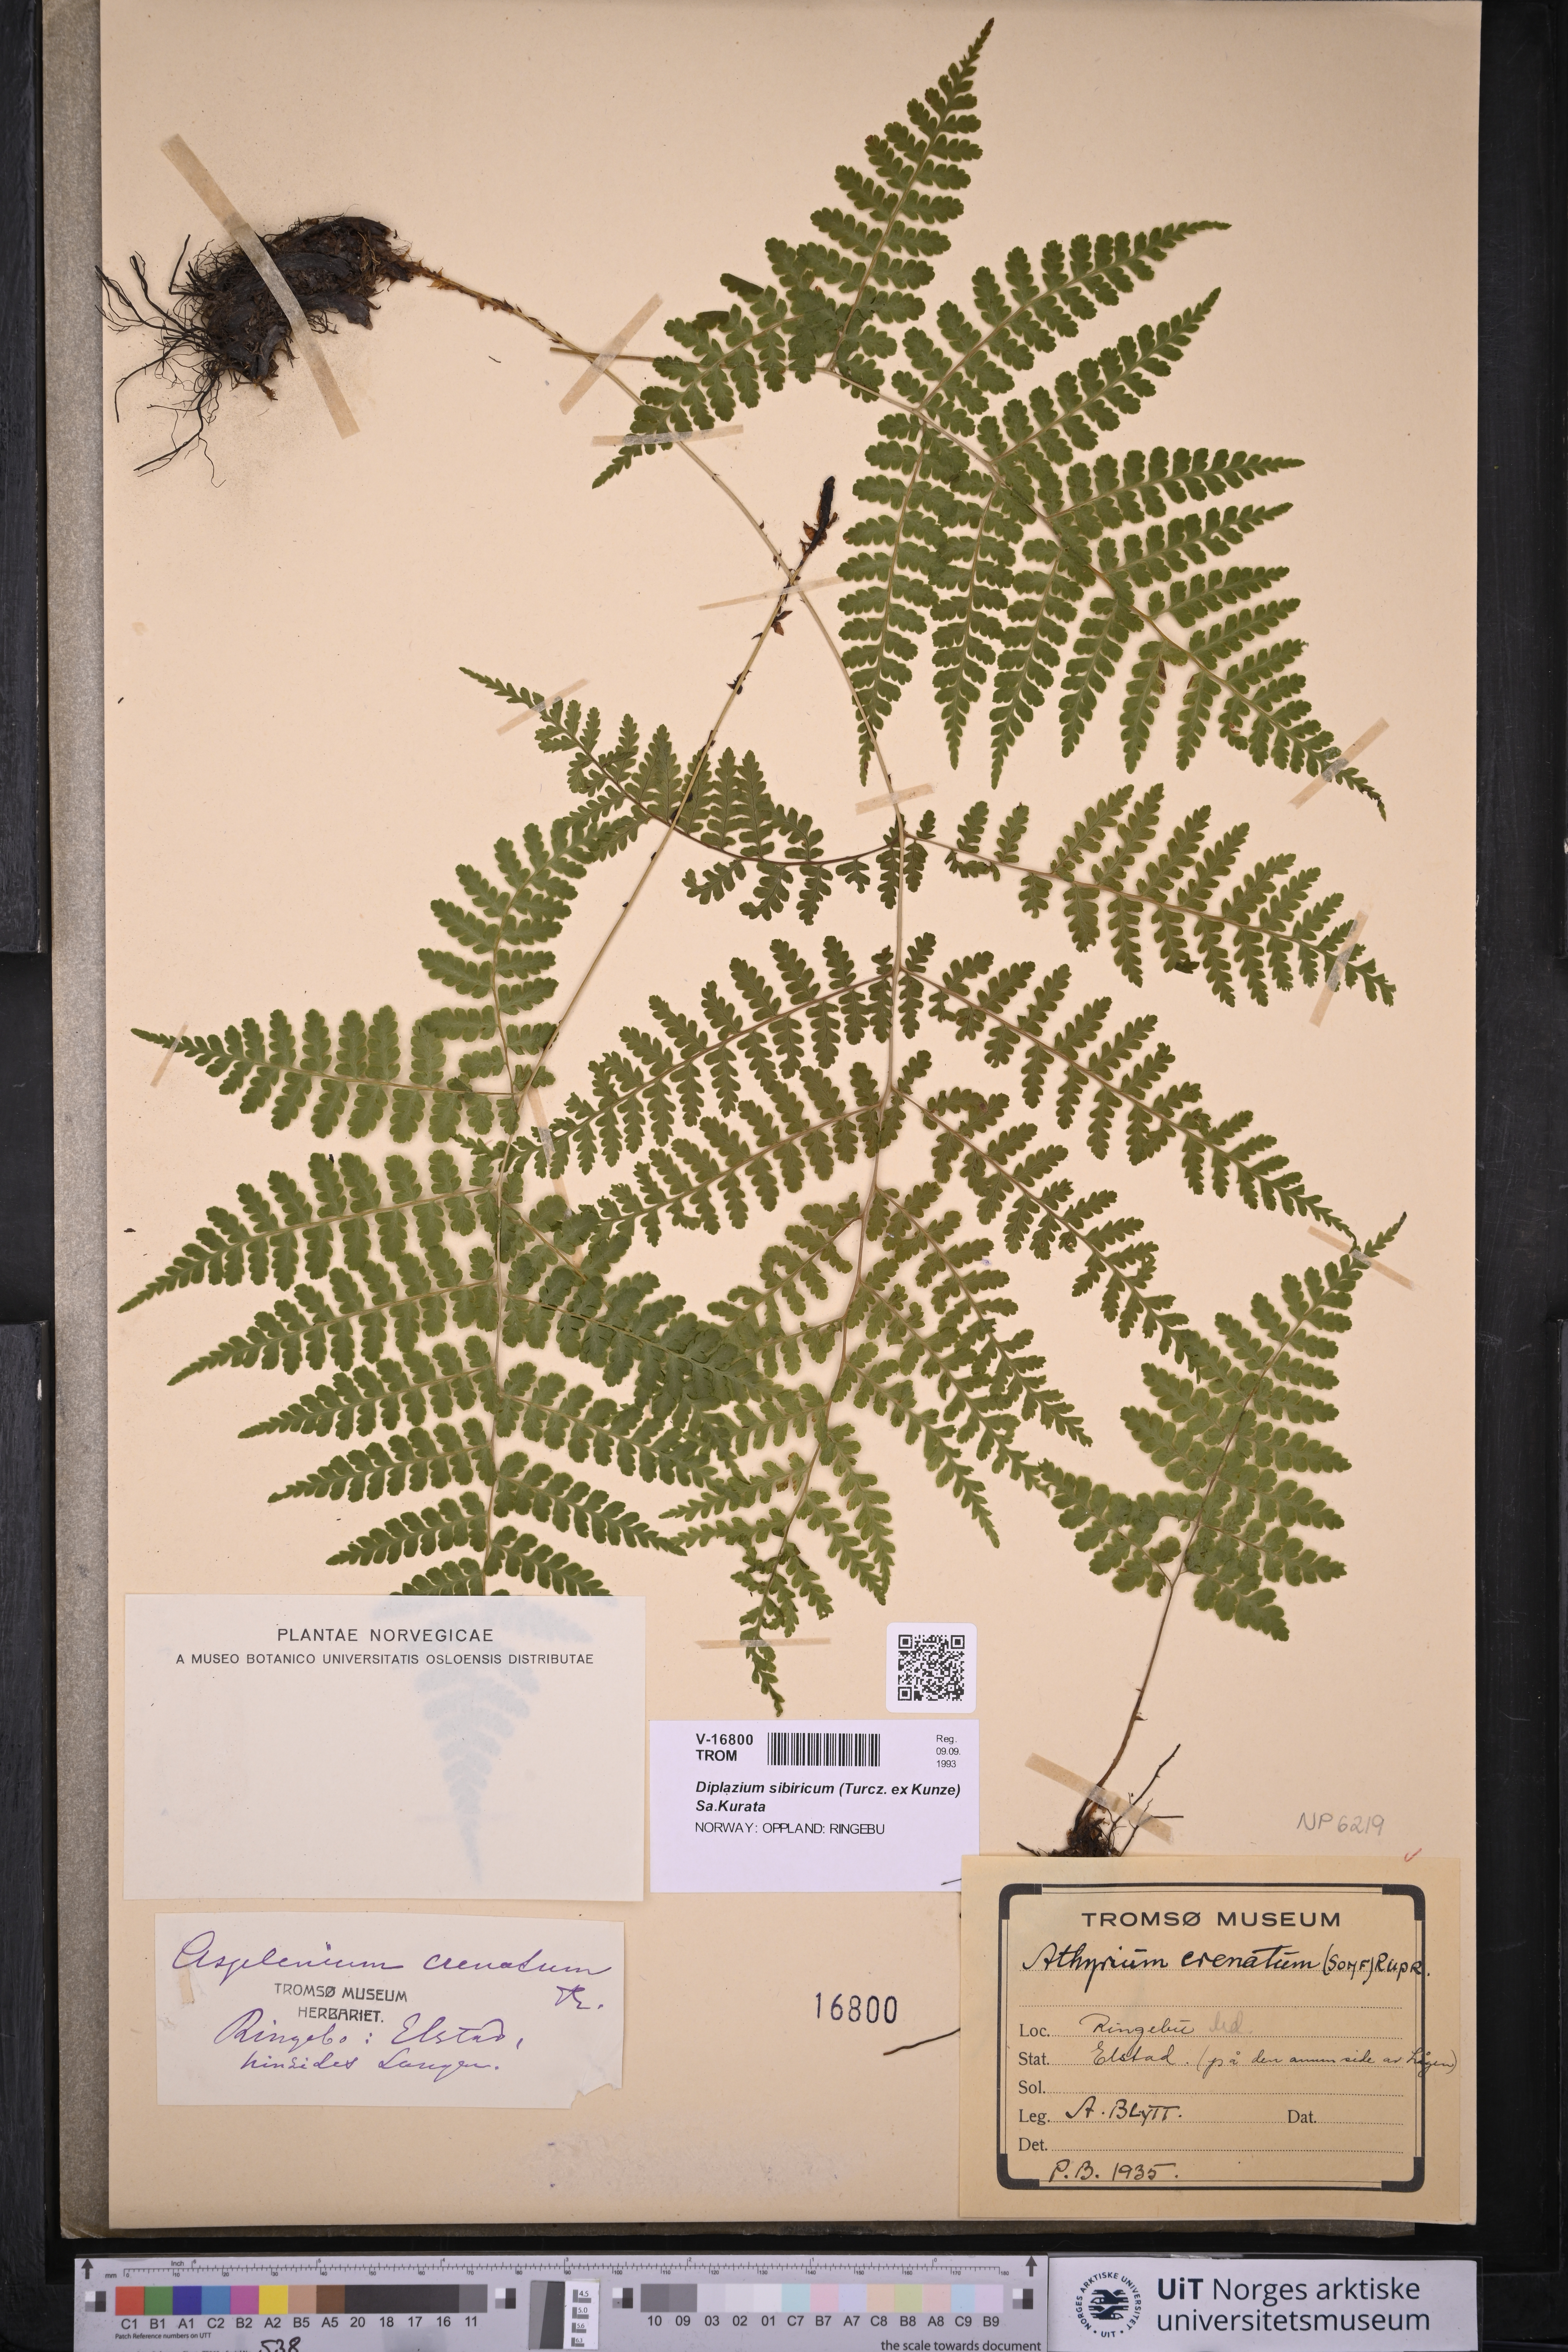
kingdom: Plantae
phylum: Tracheophyta
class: Polypodiopsida
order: Polypodiales
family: Athyriaceae
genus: Diplazium
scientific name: Diplazium sibiricum
